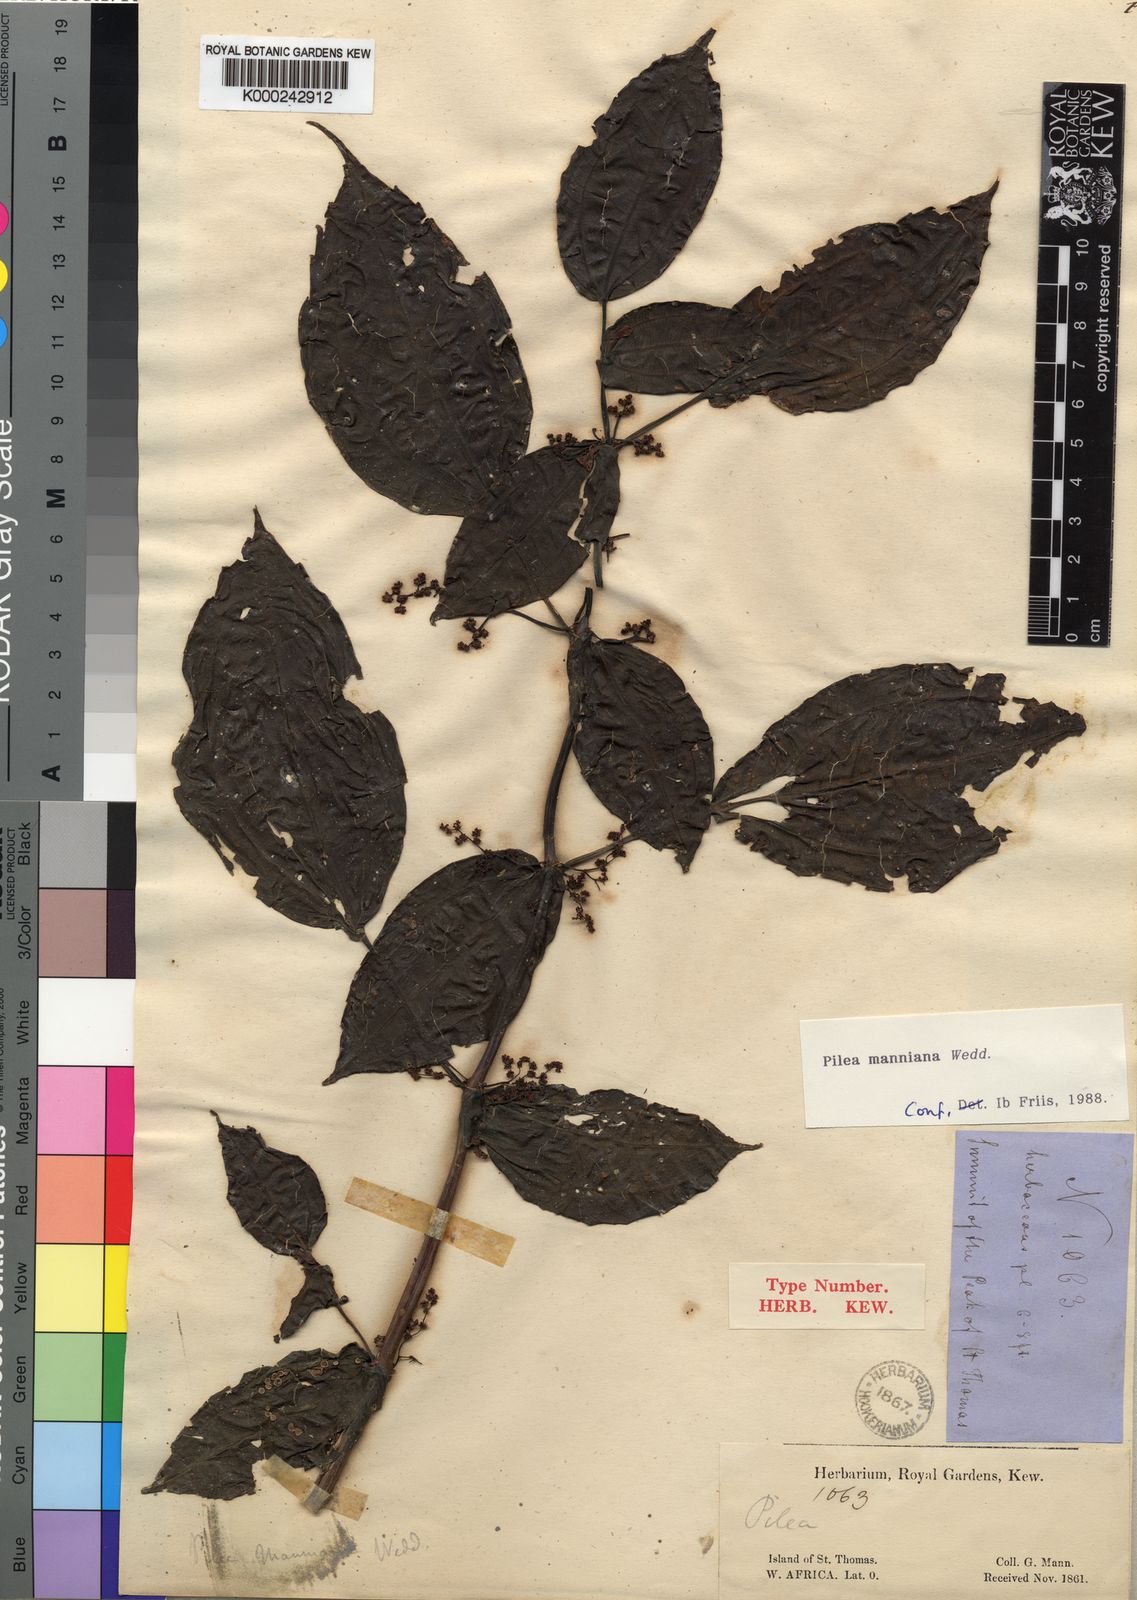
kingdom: Plantae
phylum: Tracheophyta
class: Magnoliopsida
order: Rosales
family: Urticaceae
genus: Pilea
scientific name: Pilea manniana
